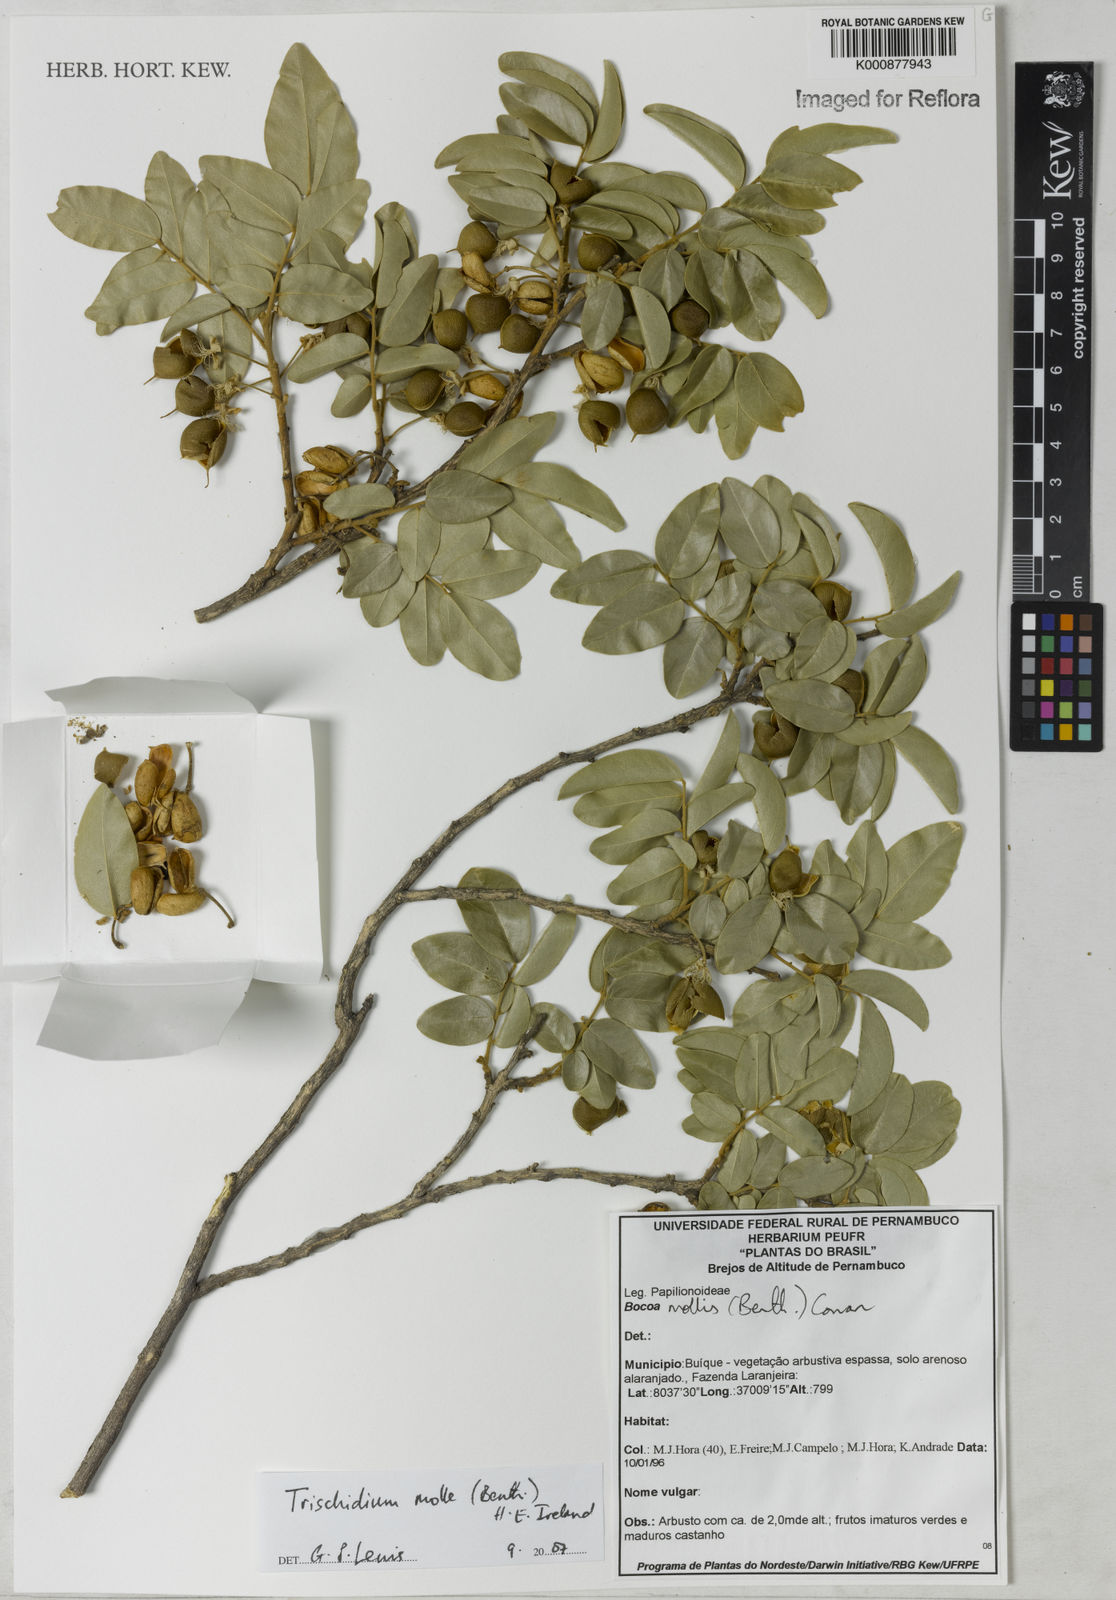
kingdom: Plantae
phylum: Tracheophyta
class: Magnoliopsida
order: Fabales
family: Fabaceae
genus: Trischidium
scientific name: Trischidium molle
